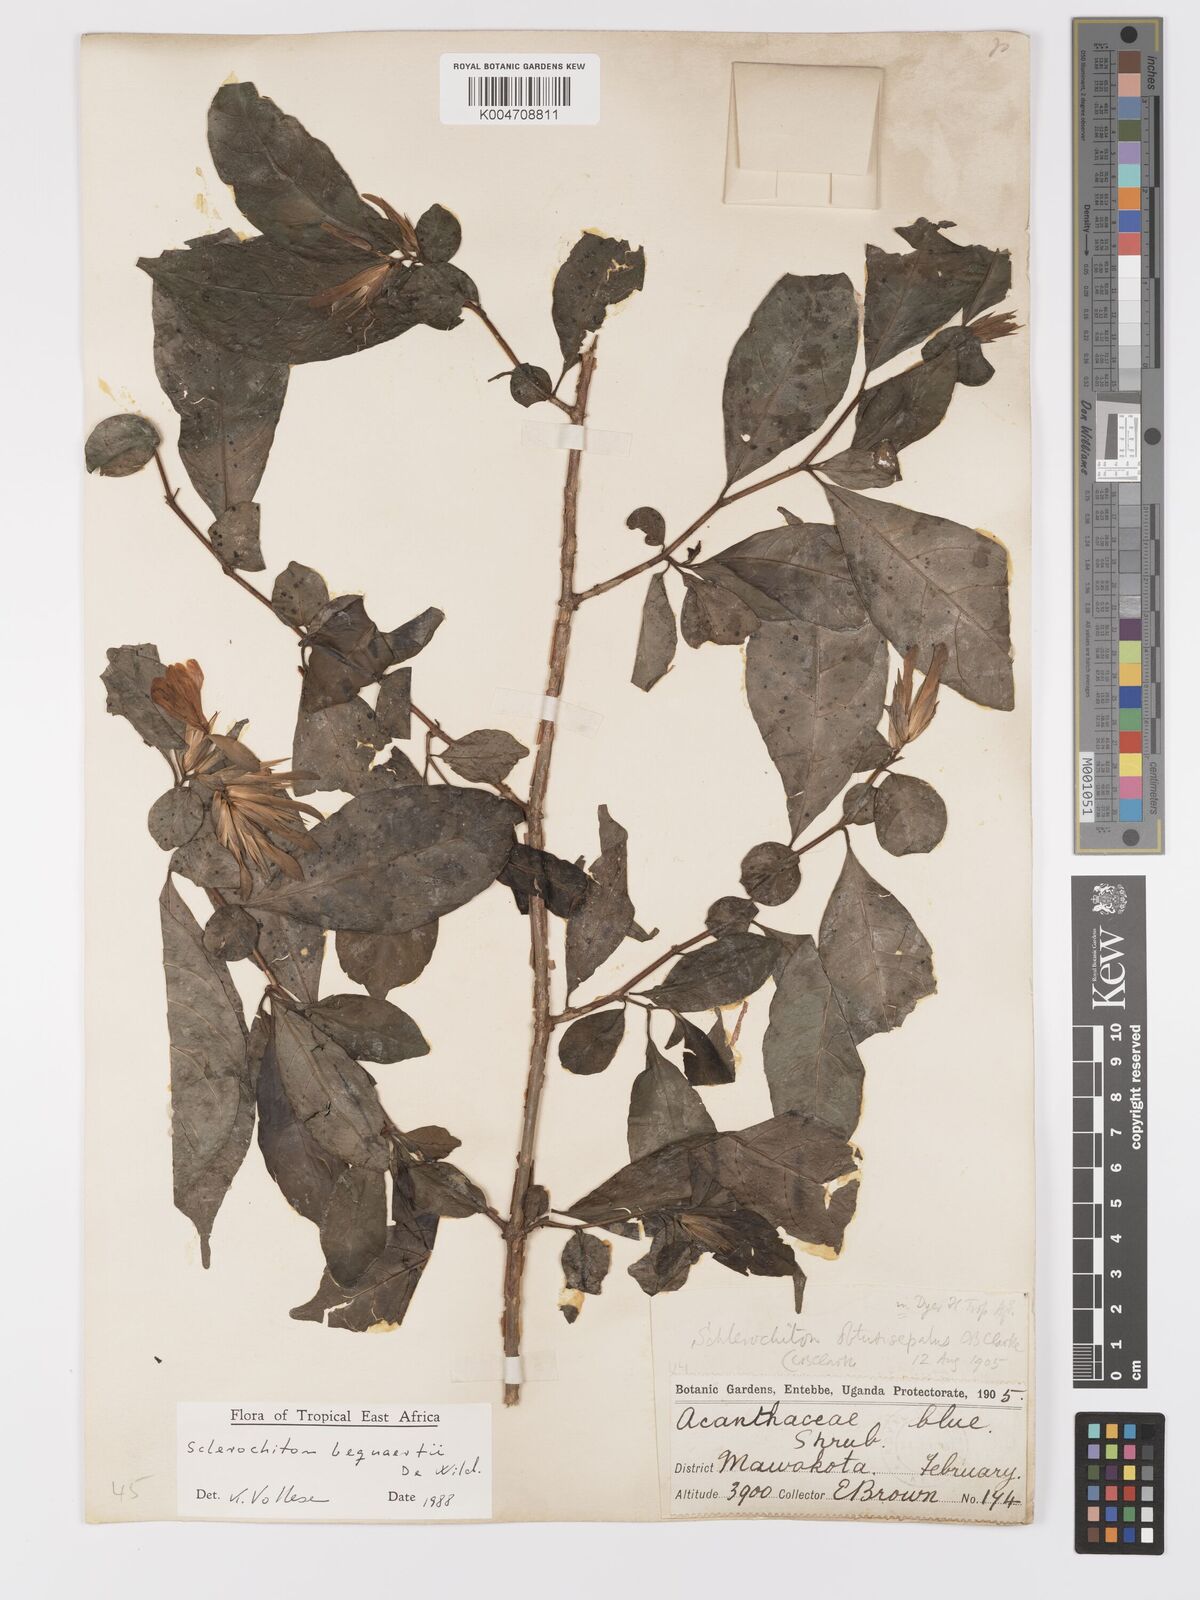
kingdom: Plantae
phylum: Tracheophyta
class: Magnoliopsida
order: Lamiales
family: Acanthaceae
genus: Sclerochiton
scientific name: Sclerochiton bequaertii
